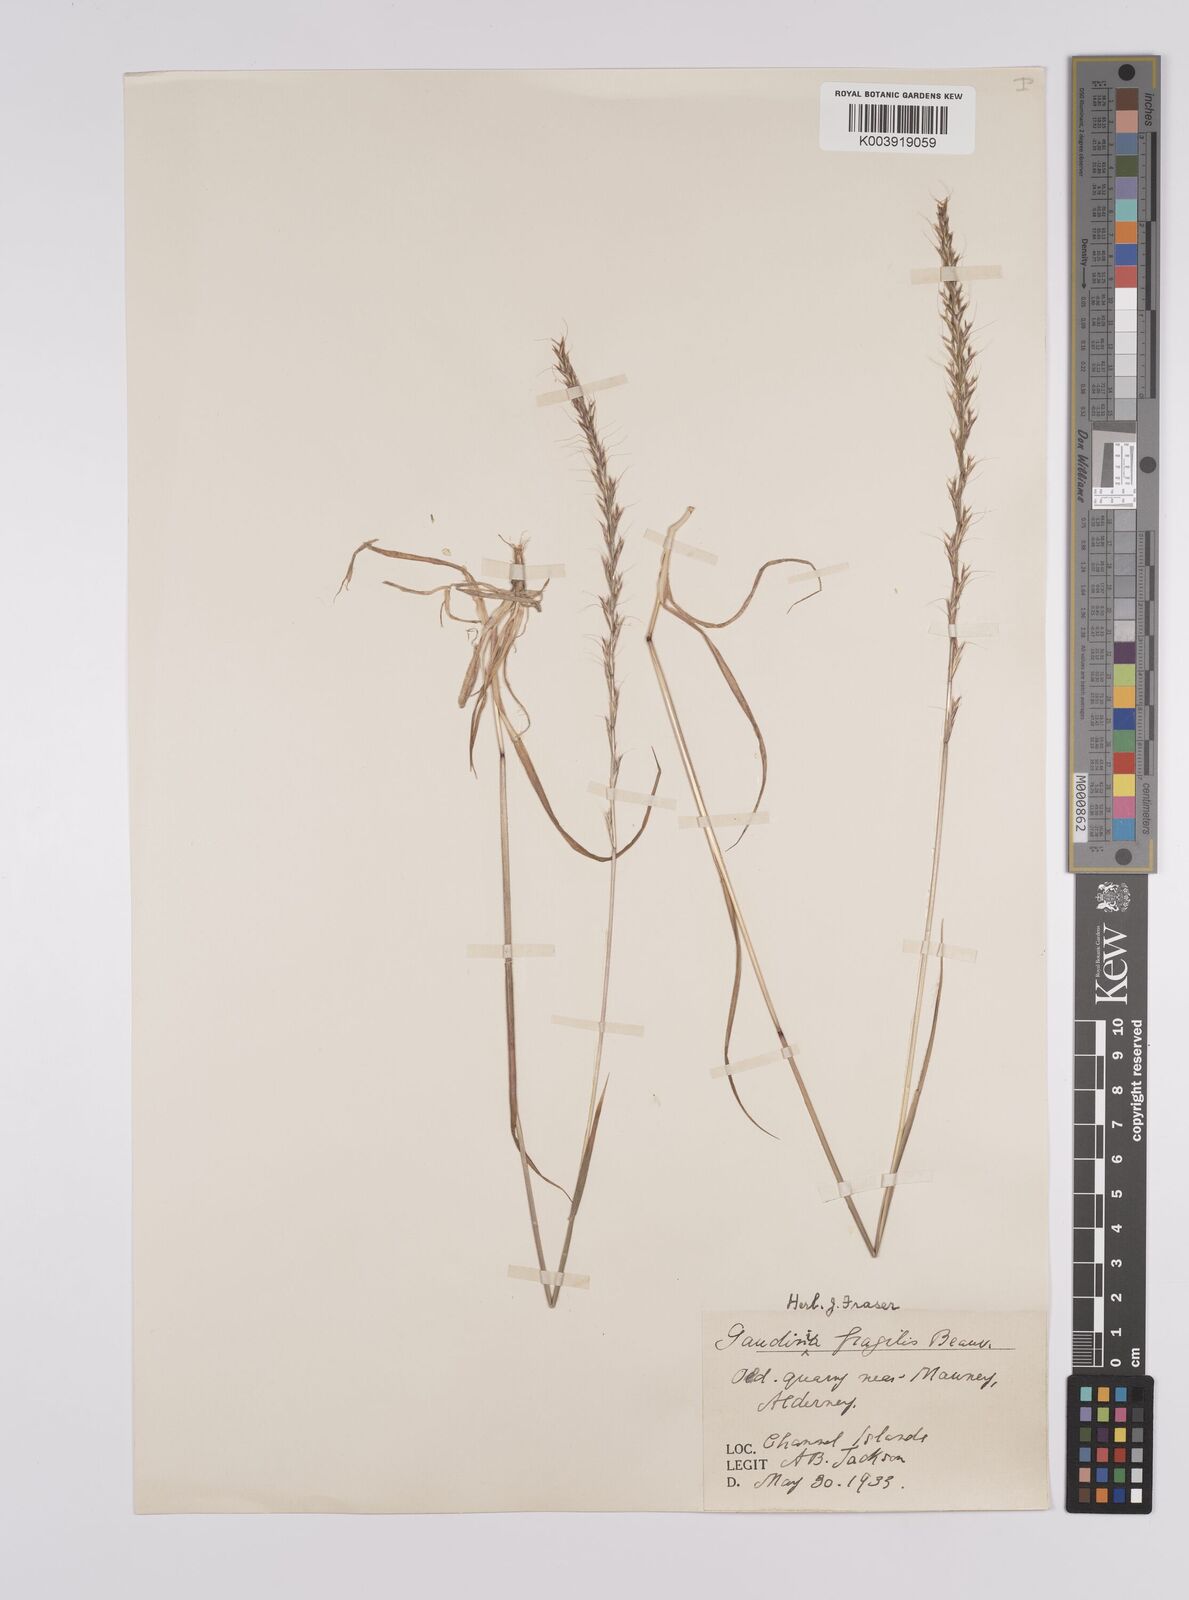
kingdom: Plantae
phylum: Tracheophyta
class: Liliopsida
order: Poales
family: Poaceae
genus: Gaudinia
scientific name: Gaudinia fragilis
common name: French oat-grass
